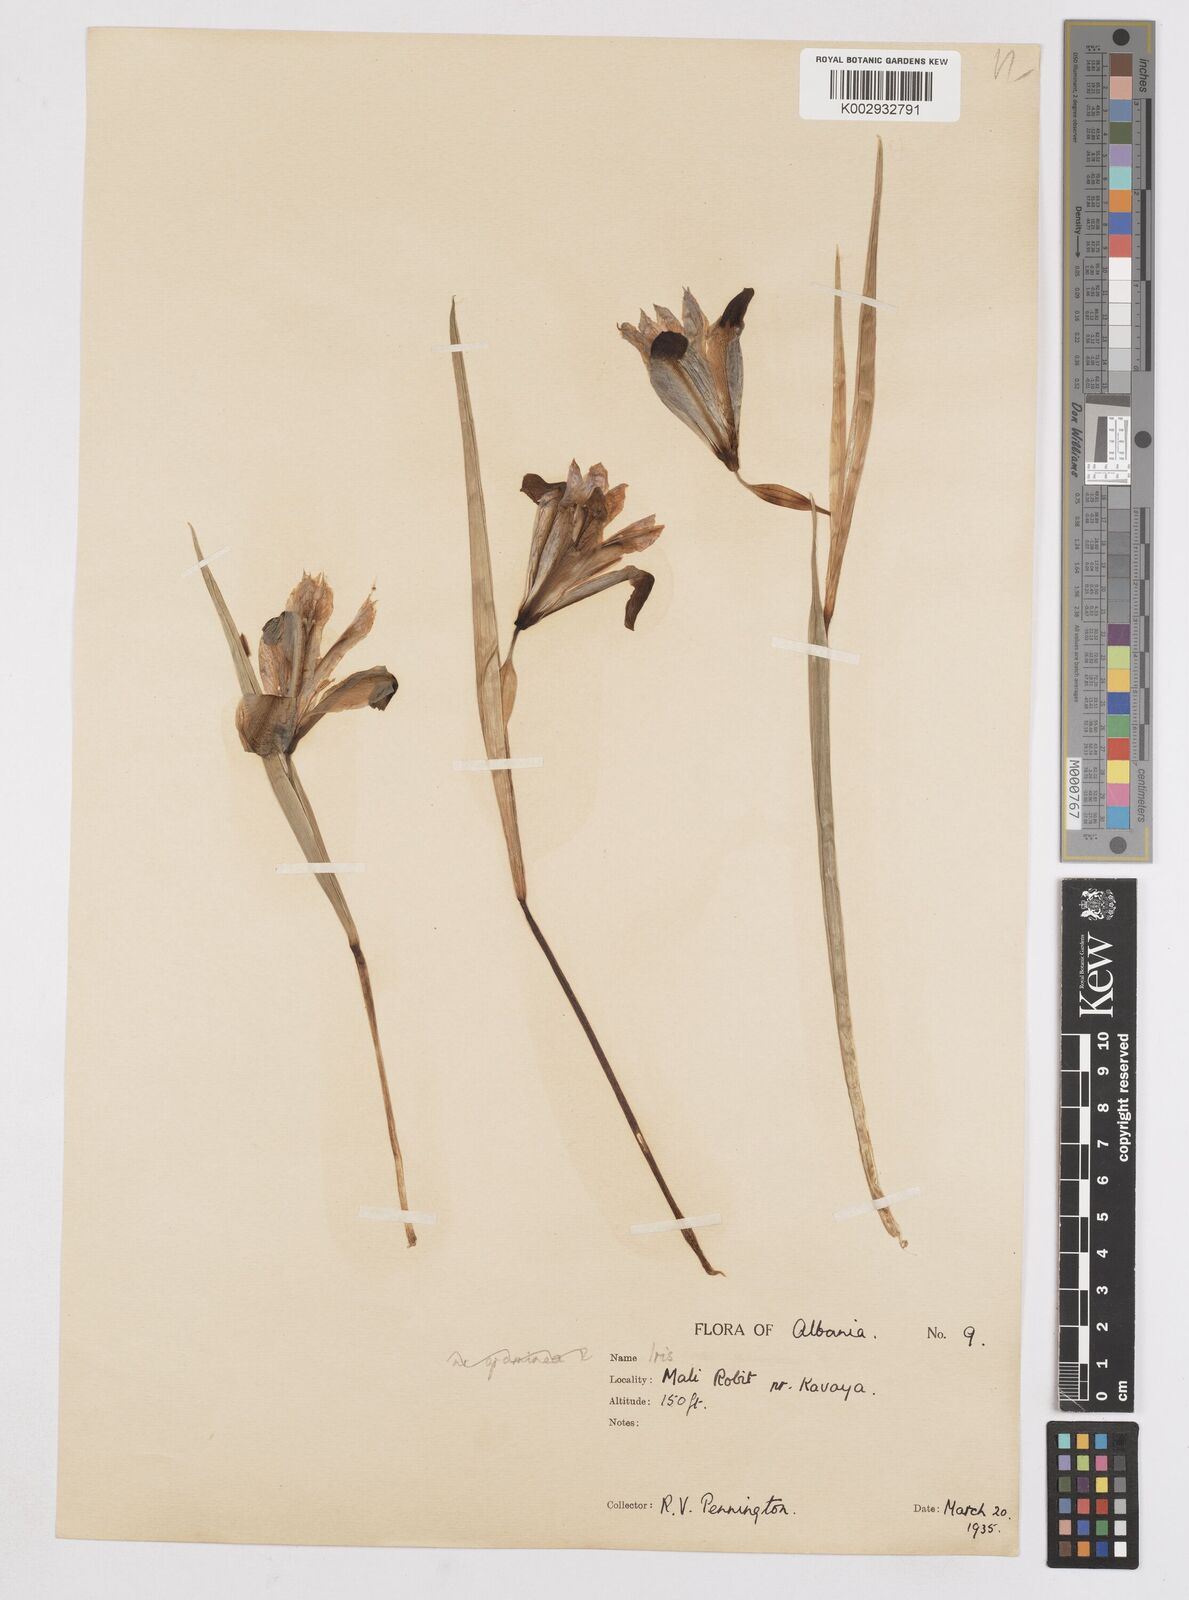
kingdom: Plantae
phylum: Tracheophyta
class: Liliopsida
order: Asparagales
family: Iridaceae
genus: Iris
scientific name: Iris
